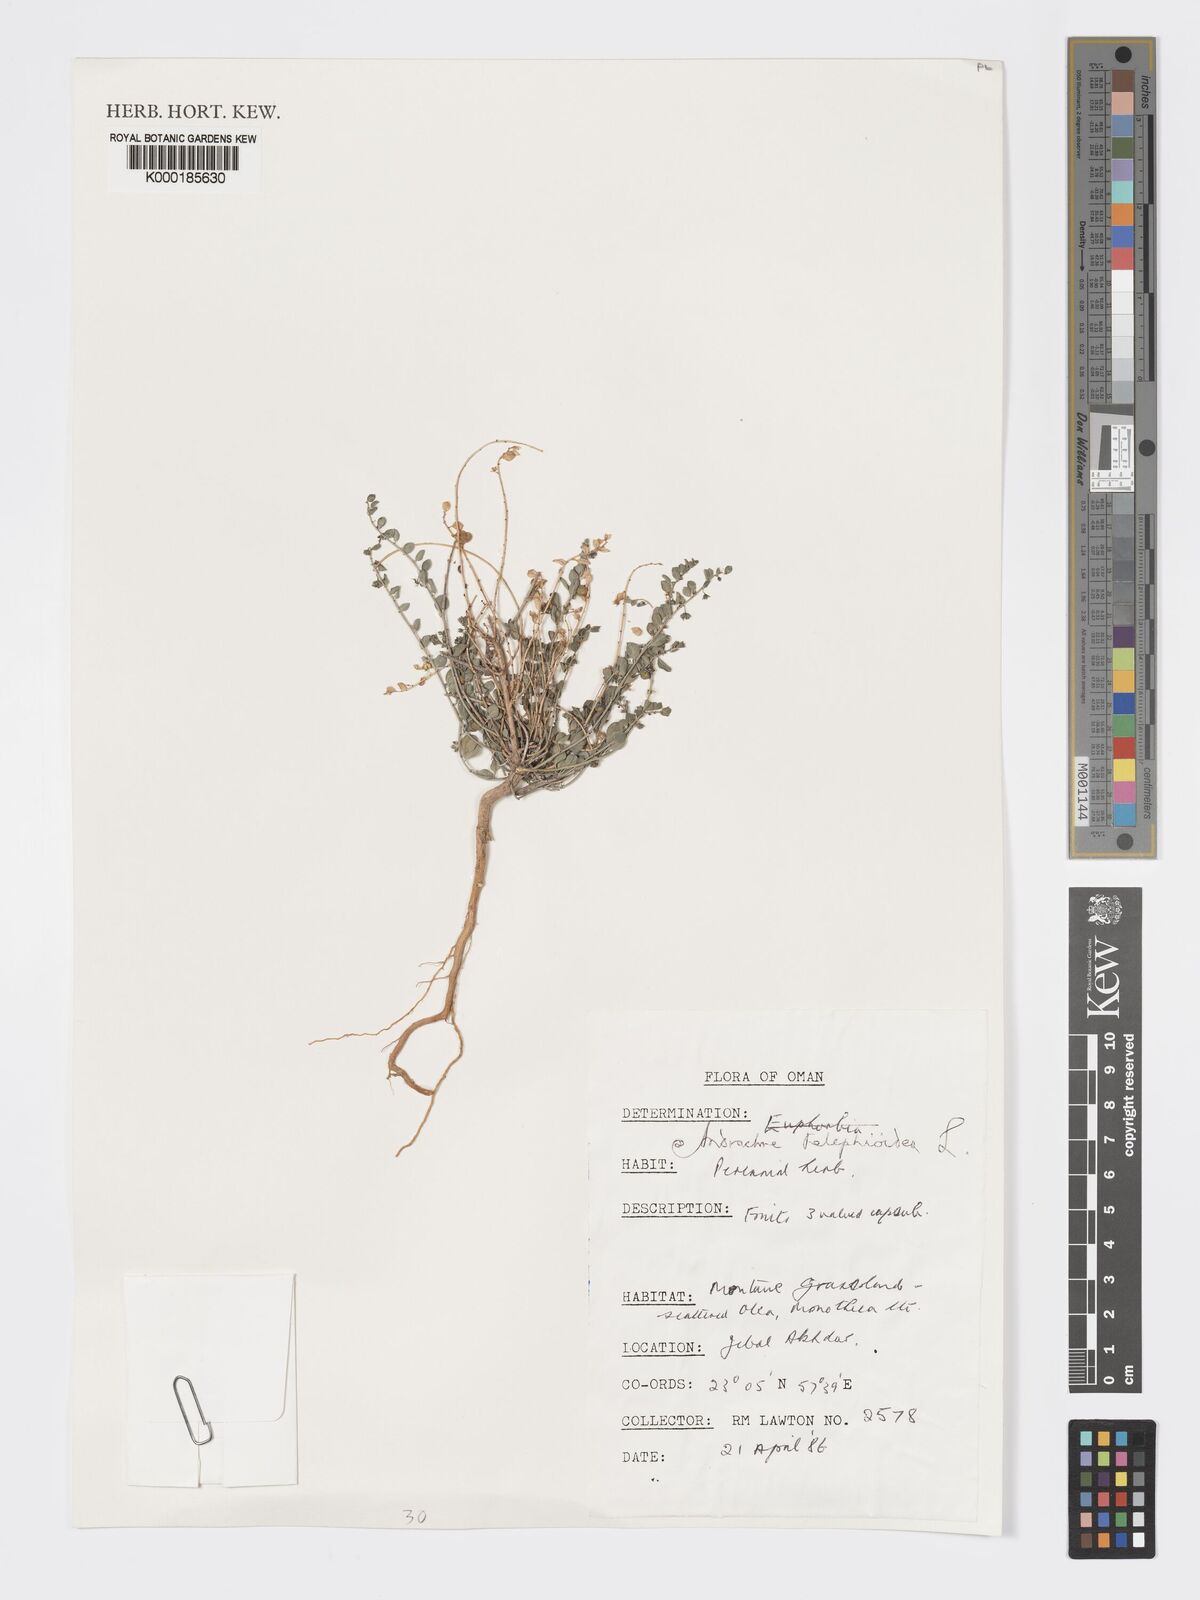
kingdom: Plantae
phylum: Tracheophyta
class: Magnoliopsida
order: Malpighiales
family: Phyllanthaceae
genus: Andrachne
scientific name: Andrachne telephioides
